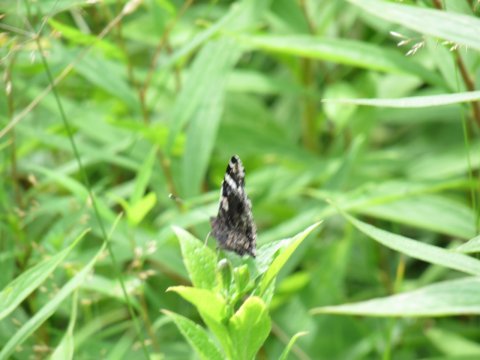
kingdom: Animalia
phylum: Arthropoda
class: Insecta
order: Lepidoptera
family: Nymphalidae
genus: Vanessa
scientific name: Vanessa atalanta
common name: Red Admiral
